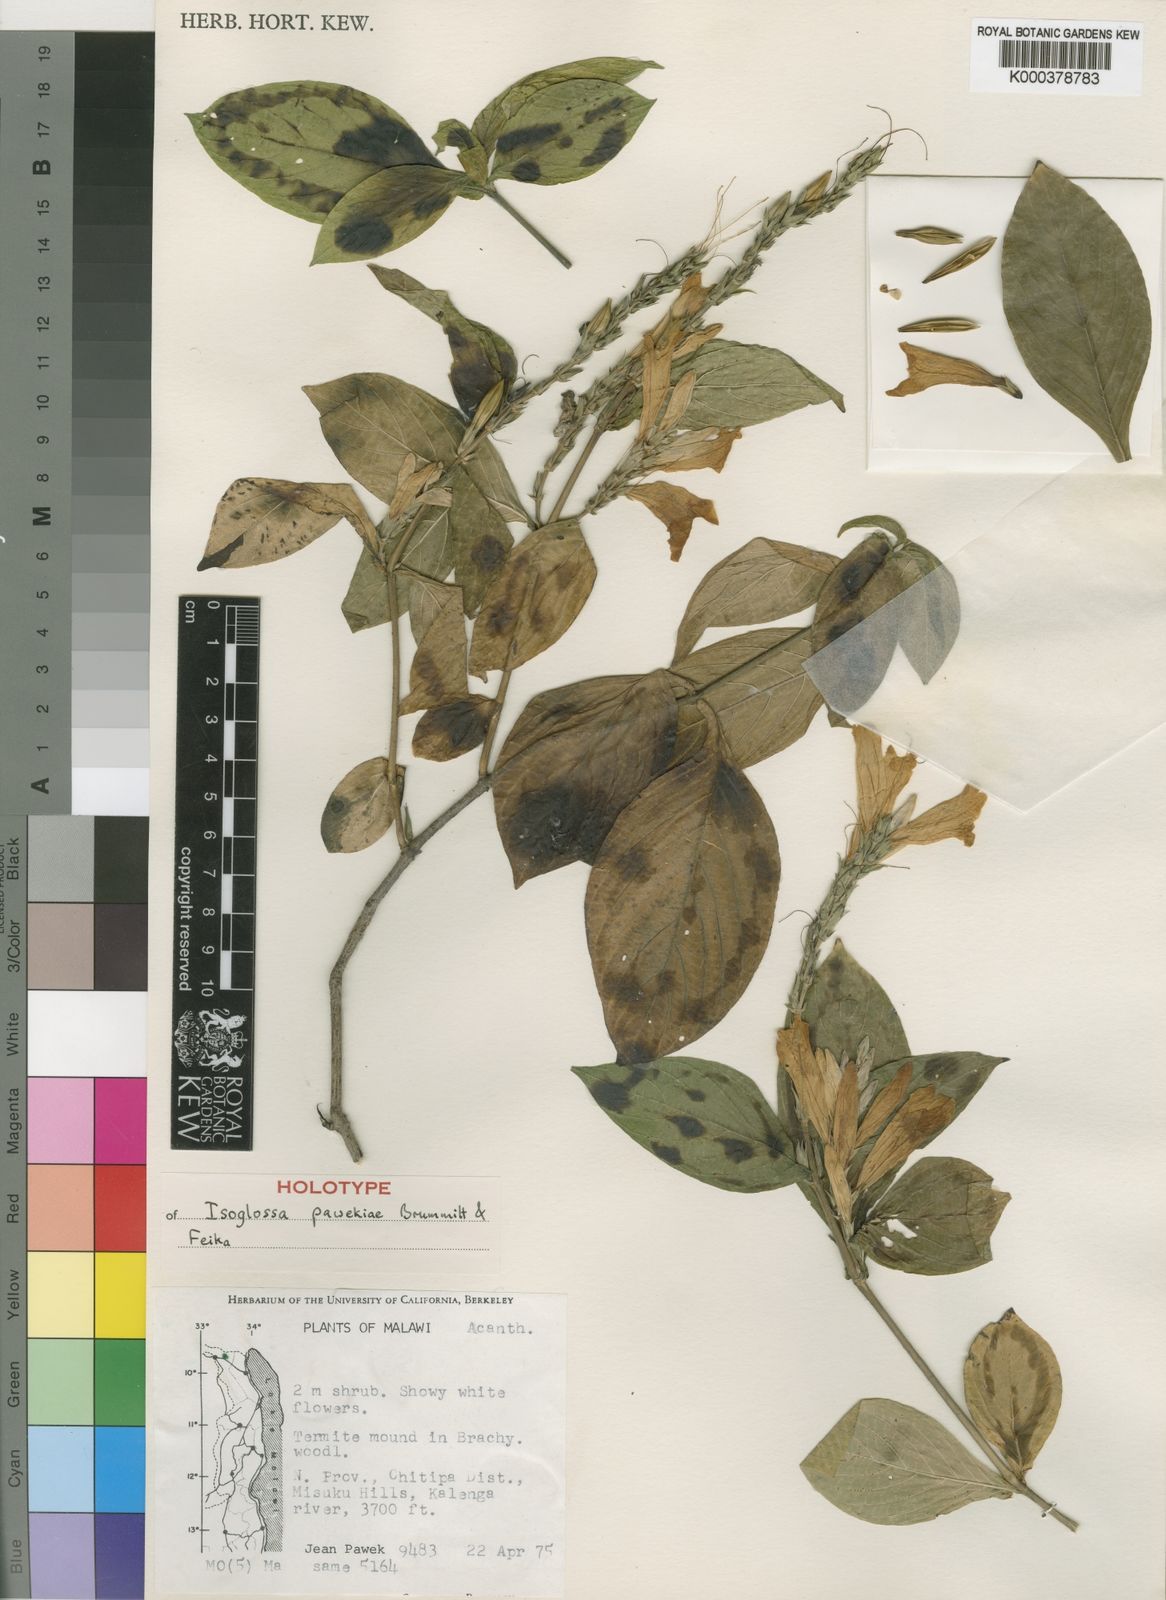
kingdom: Plantae
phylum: Tracheophyta
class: Magnoliopsida
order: Lamiales
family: Acanthaceae
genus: Isoglossa
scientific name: Isoglossa pawekiae
